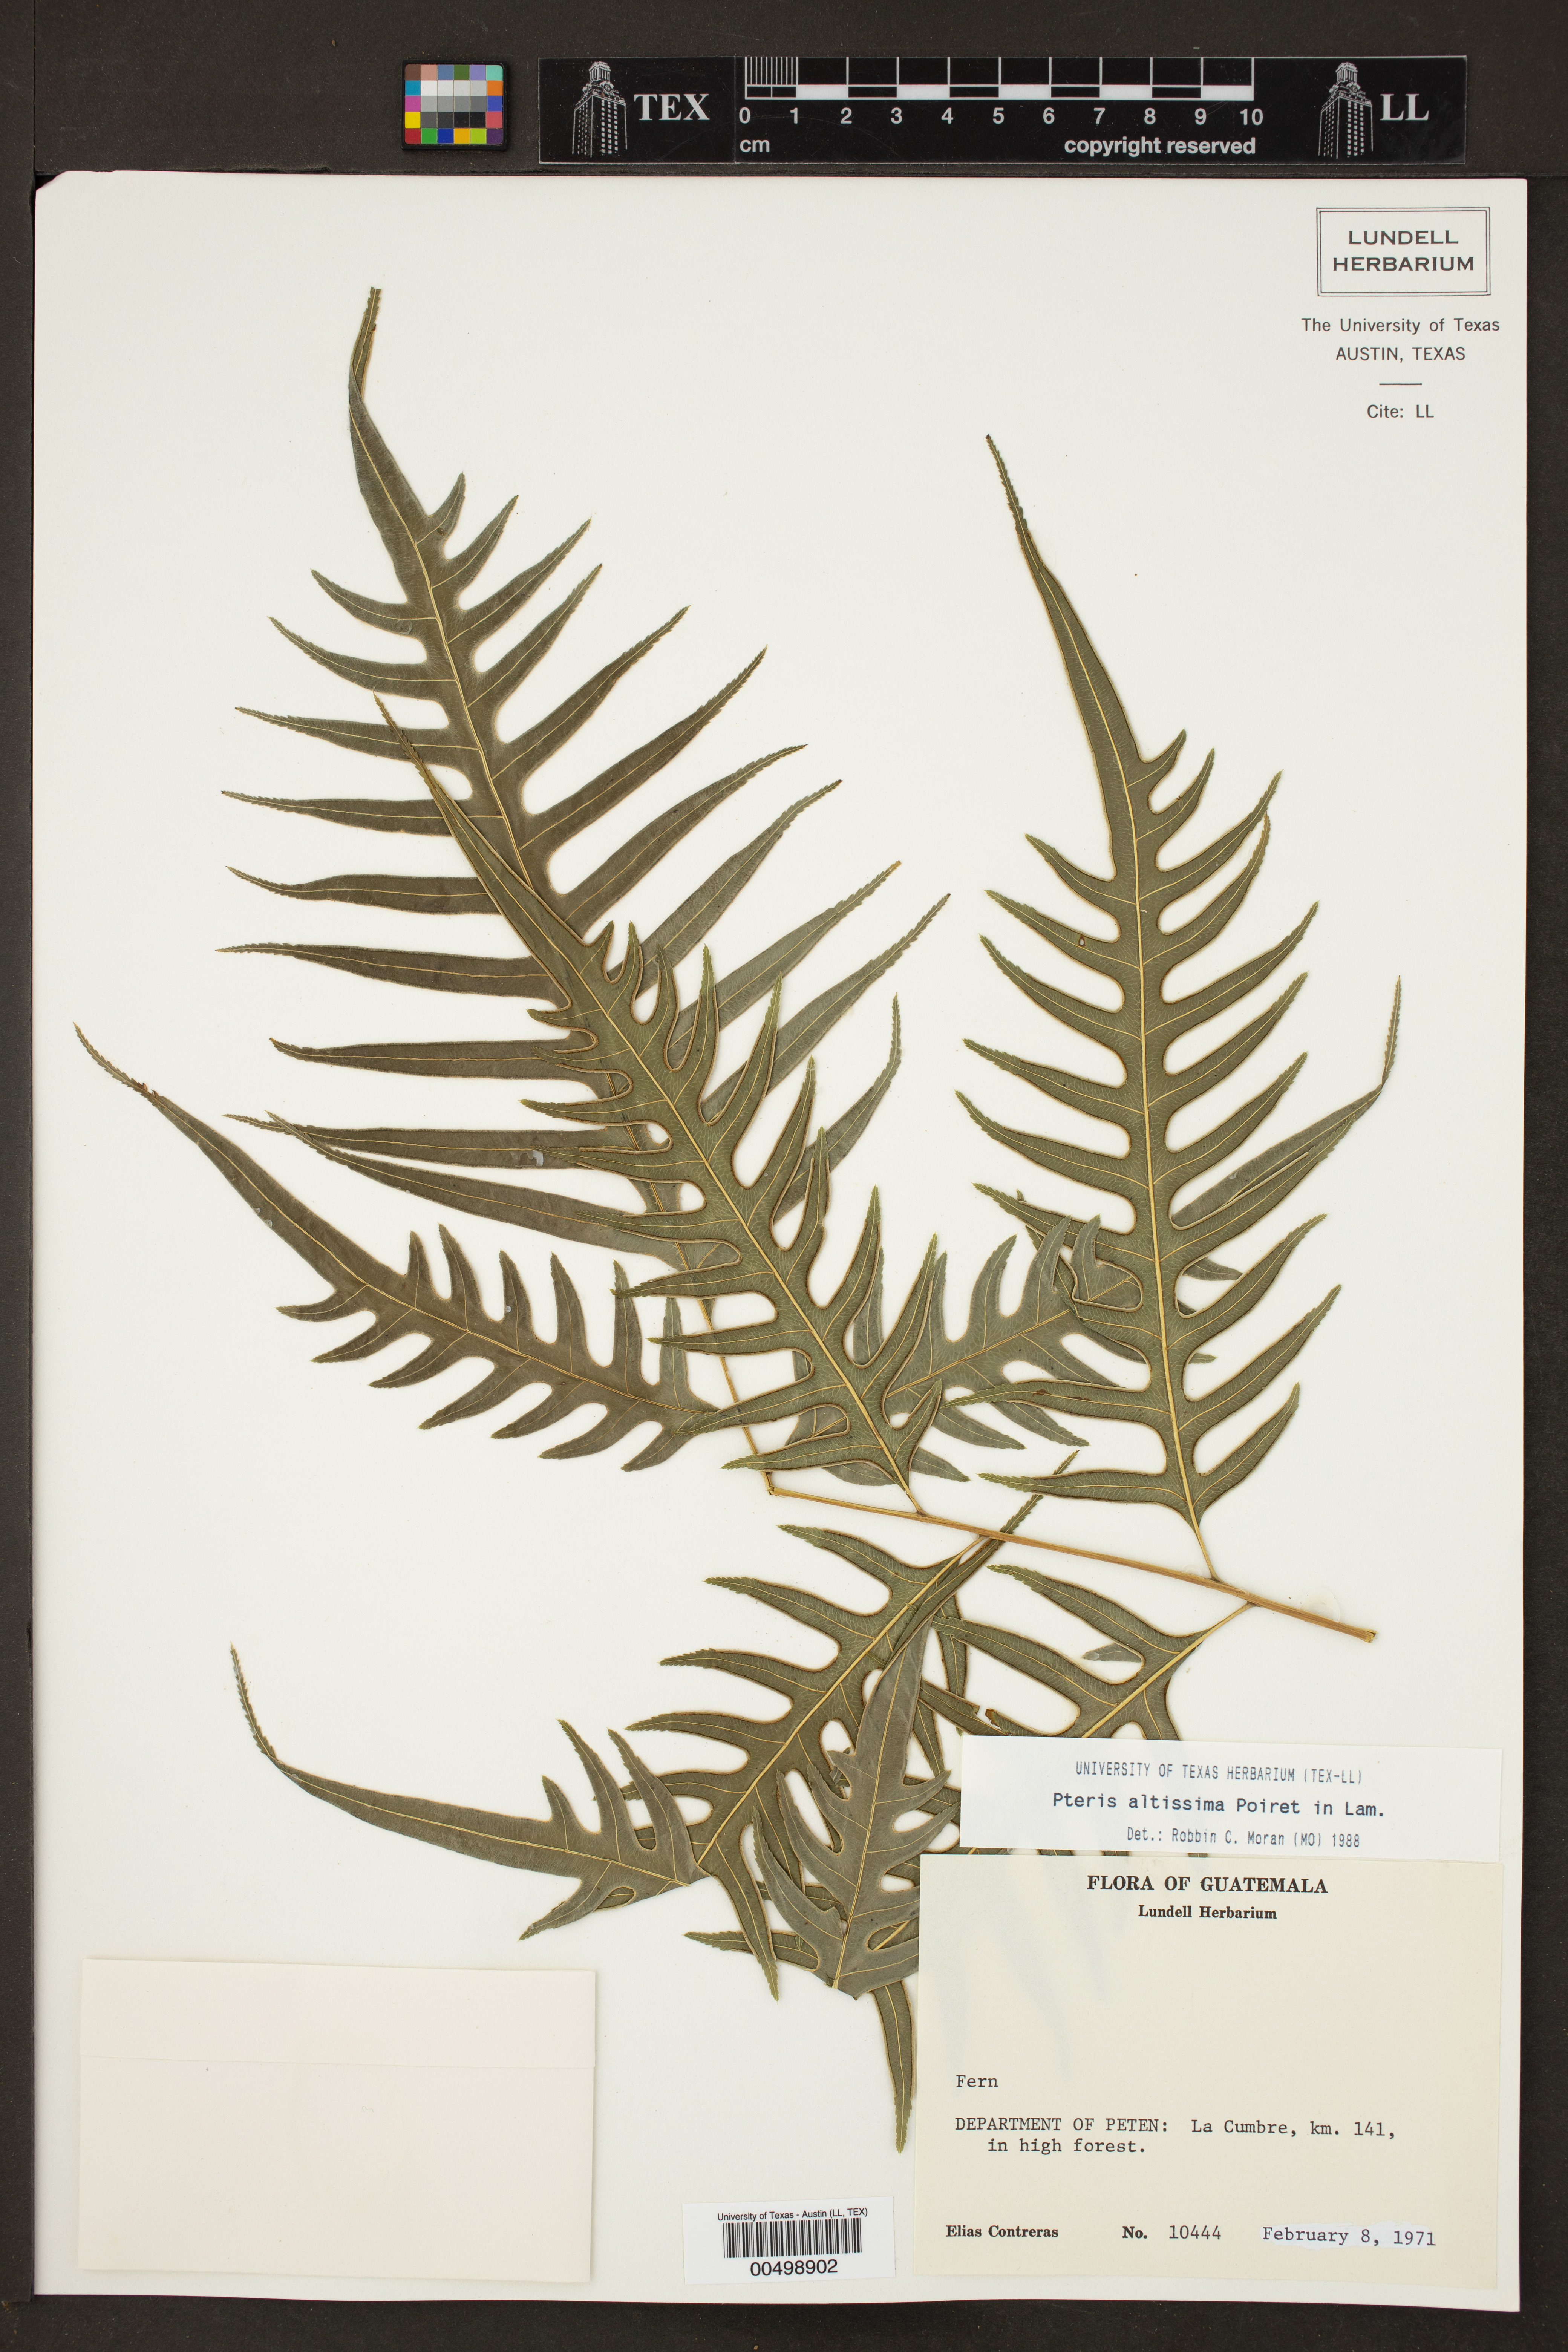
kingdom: Plantae
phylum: Tracheophyta
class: Polypodiopsida
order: Polypodiales
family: Pteridaceae
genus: Pteris
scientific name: Pteris altissima
